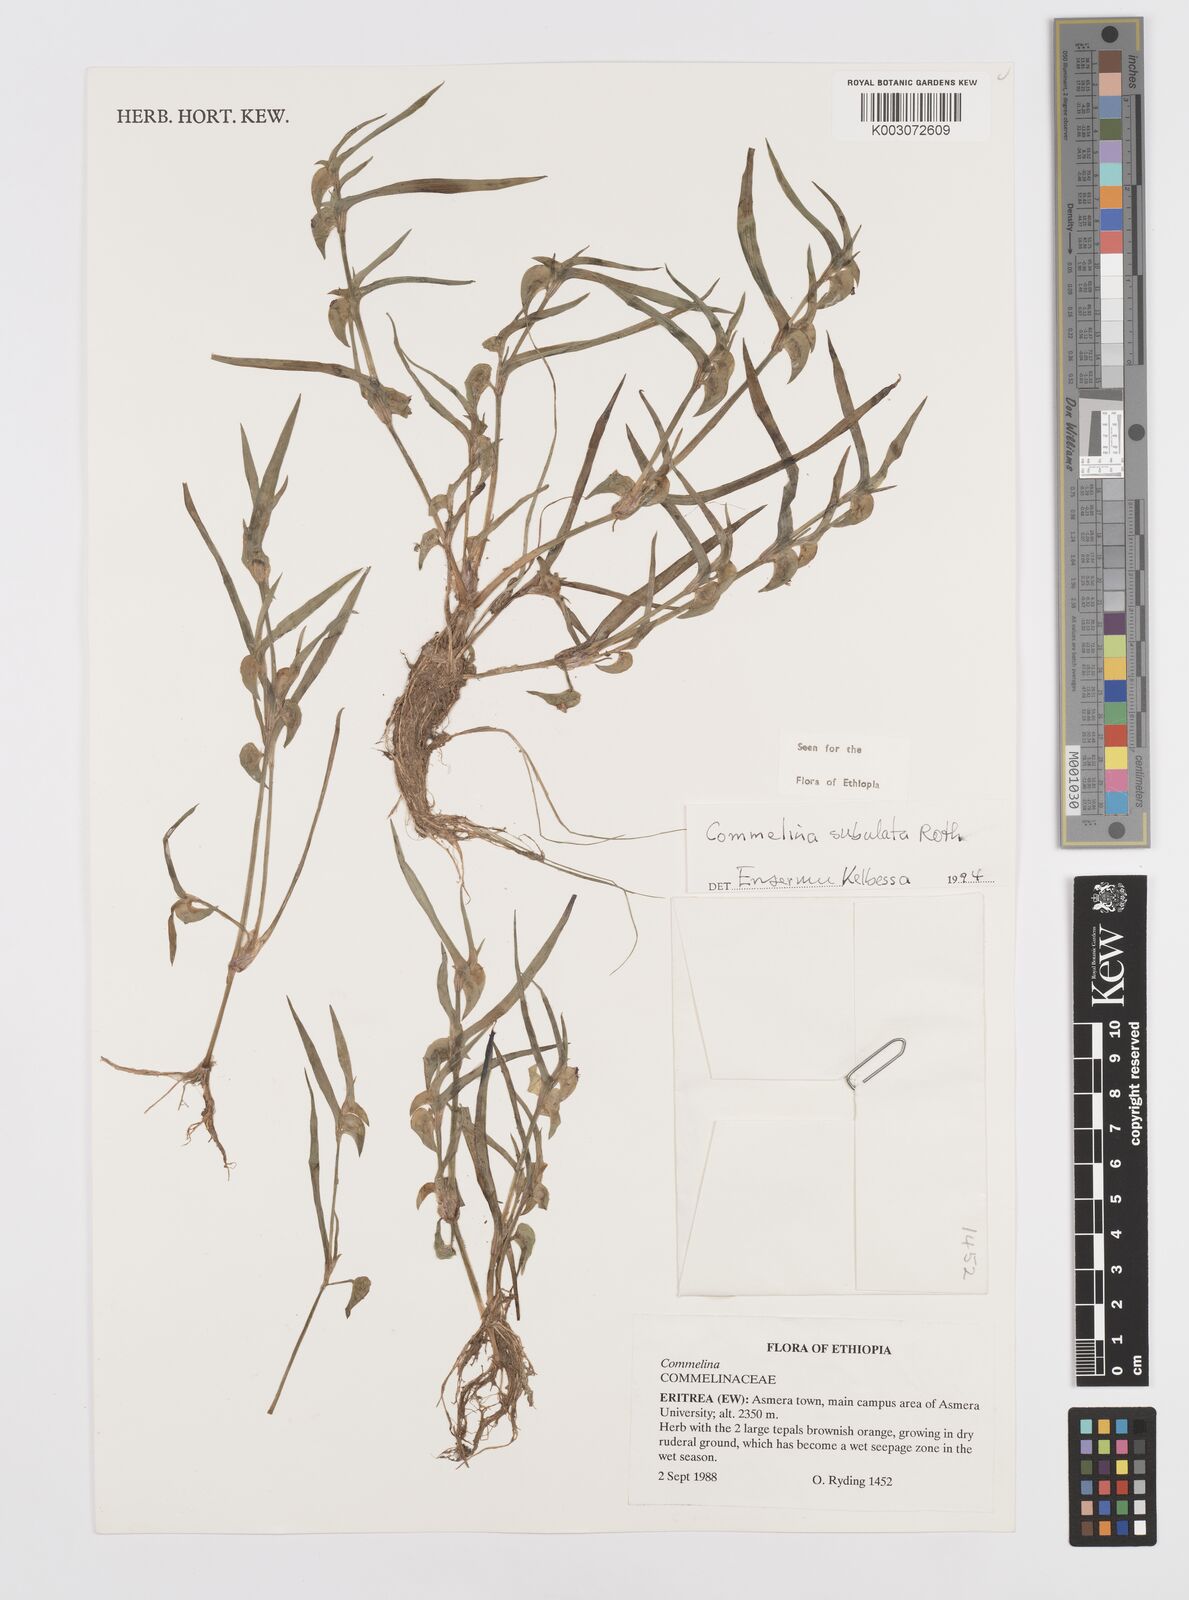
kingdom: Plantae
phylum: Tracheophyta
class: Liliopsida
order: Commelinales
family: Commelinaceae
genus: Commelina
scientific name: Commelina subulata
